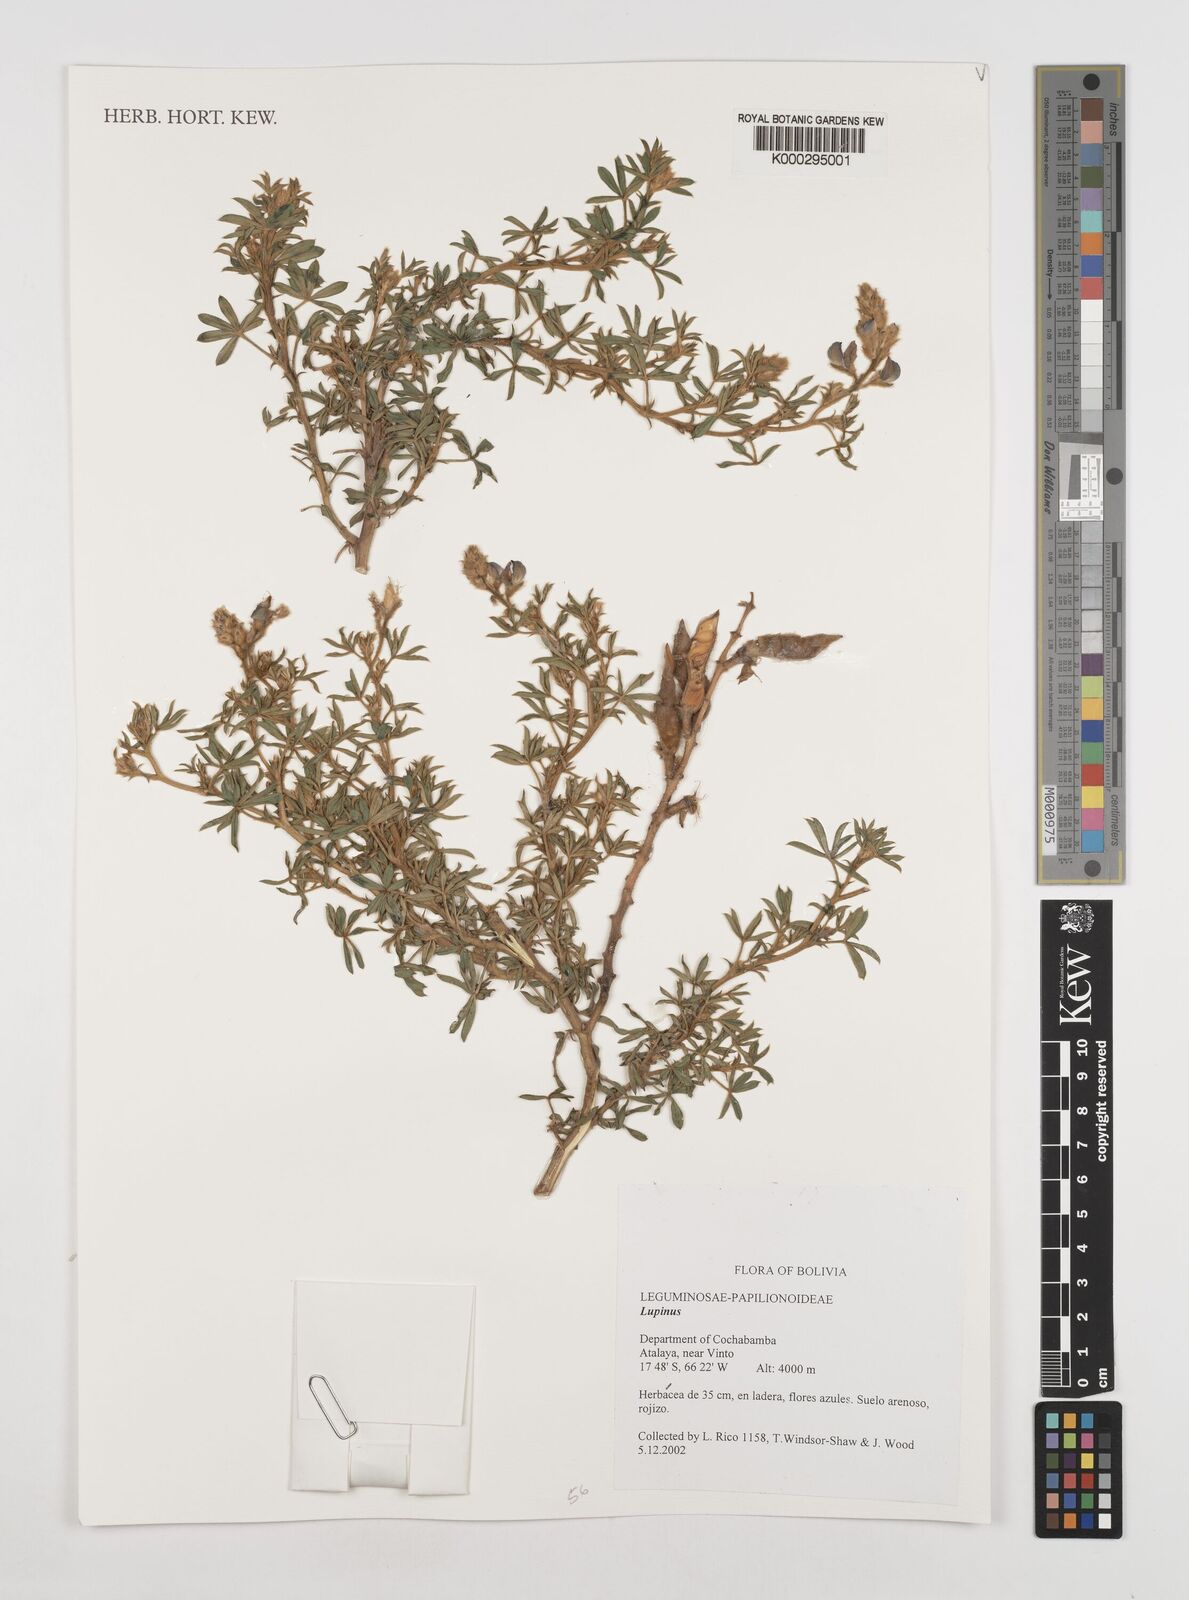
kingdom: Plantae
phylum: Tracheophyta
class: Magnoliopsida
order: Fabales
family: Fabaceae
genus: Lupinus
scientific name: Lupinus
